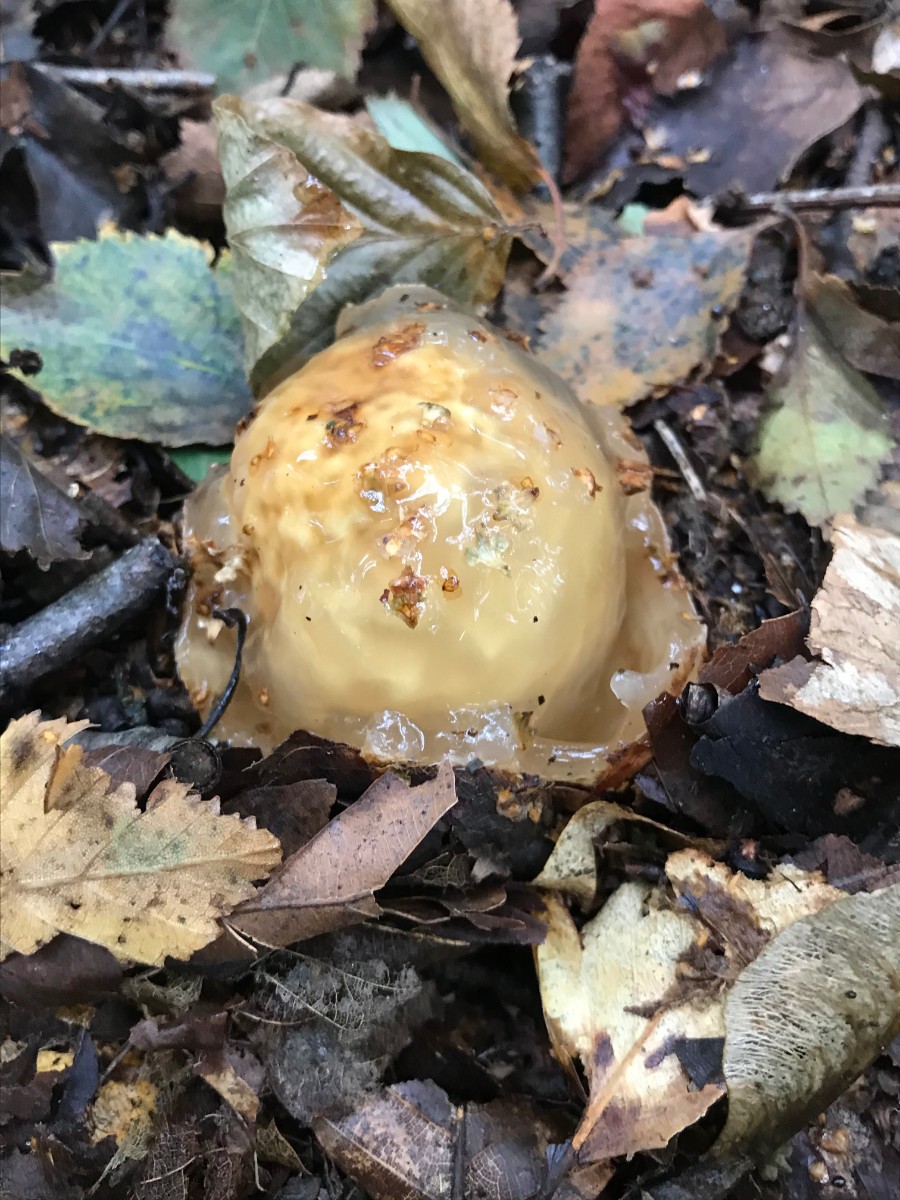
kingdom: Fungi
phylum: Basidiomycota
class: Agaricomycetes
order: Phallales
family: Phallaceae
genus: Phallus
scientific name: Phallus impudicus
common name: almindelig stinksvamp
